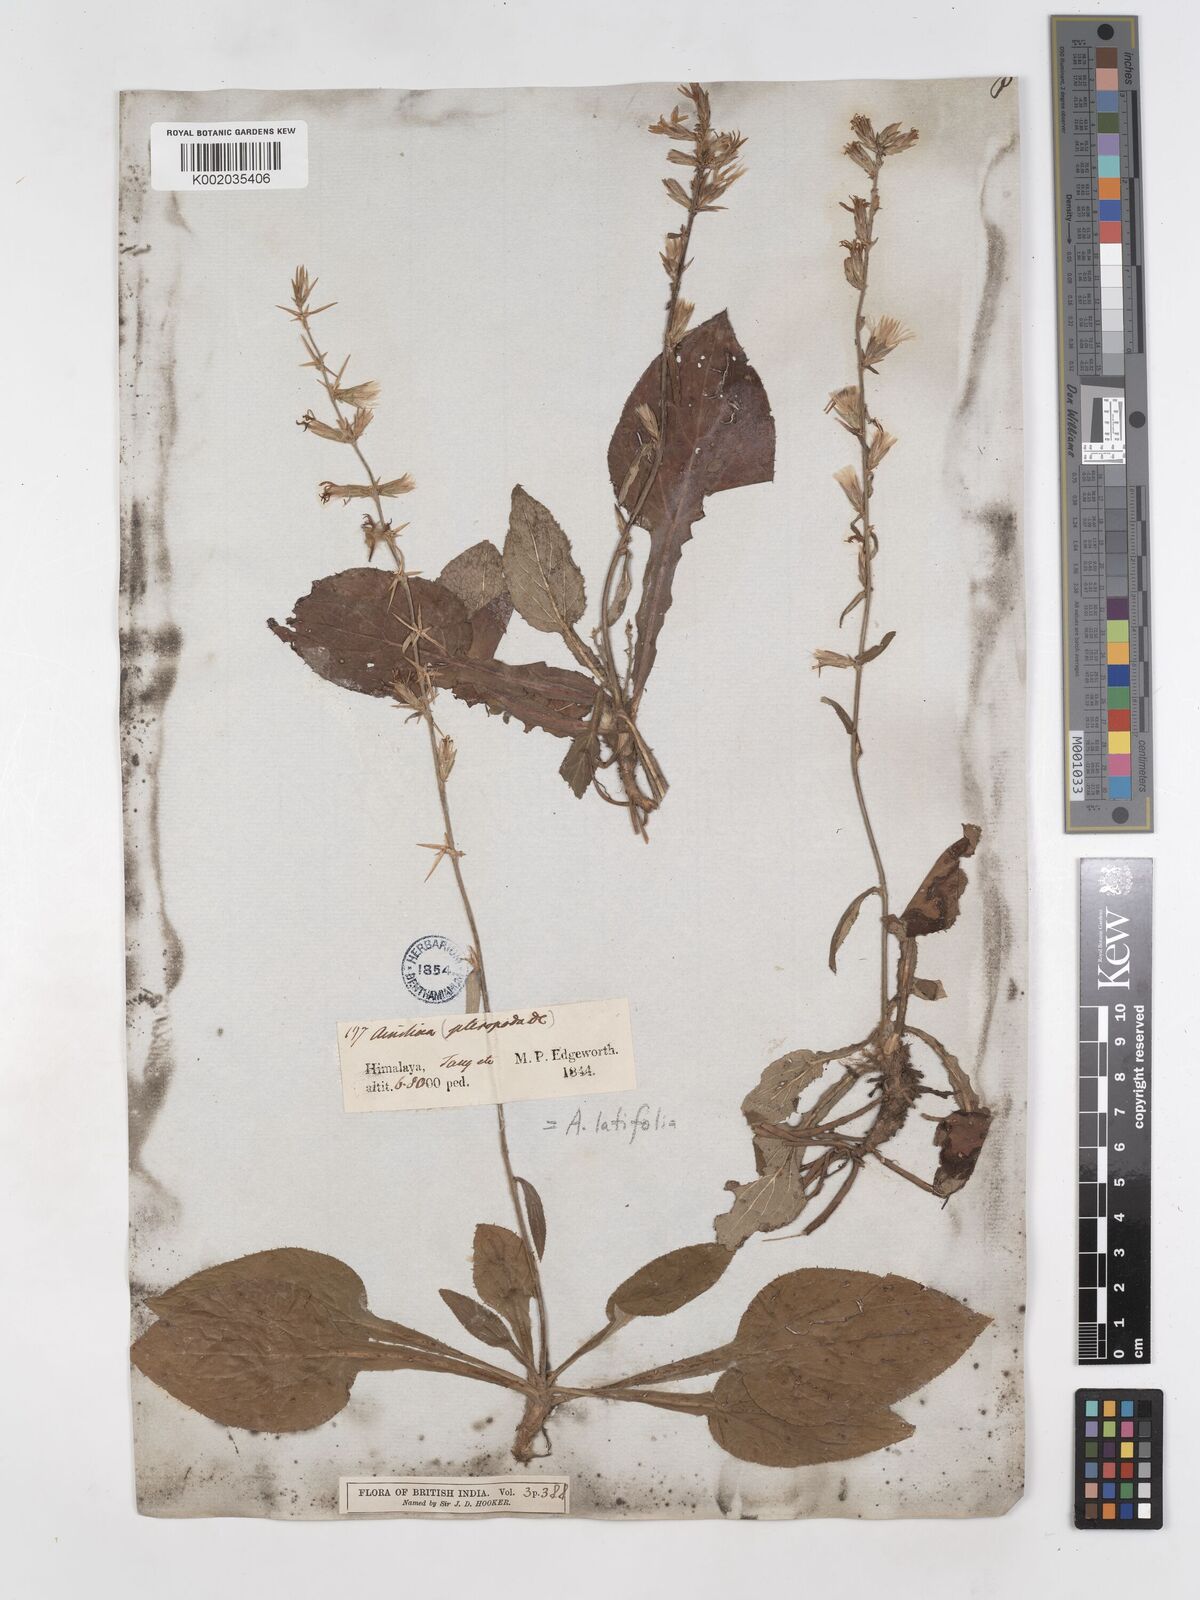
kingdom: Plantae
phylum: Tracheophyta
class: Magnoliopsida
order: Asterales
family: Asteraceae
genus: Ainsliaea
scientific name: Ainsliaea latifolia
